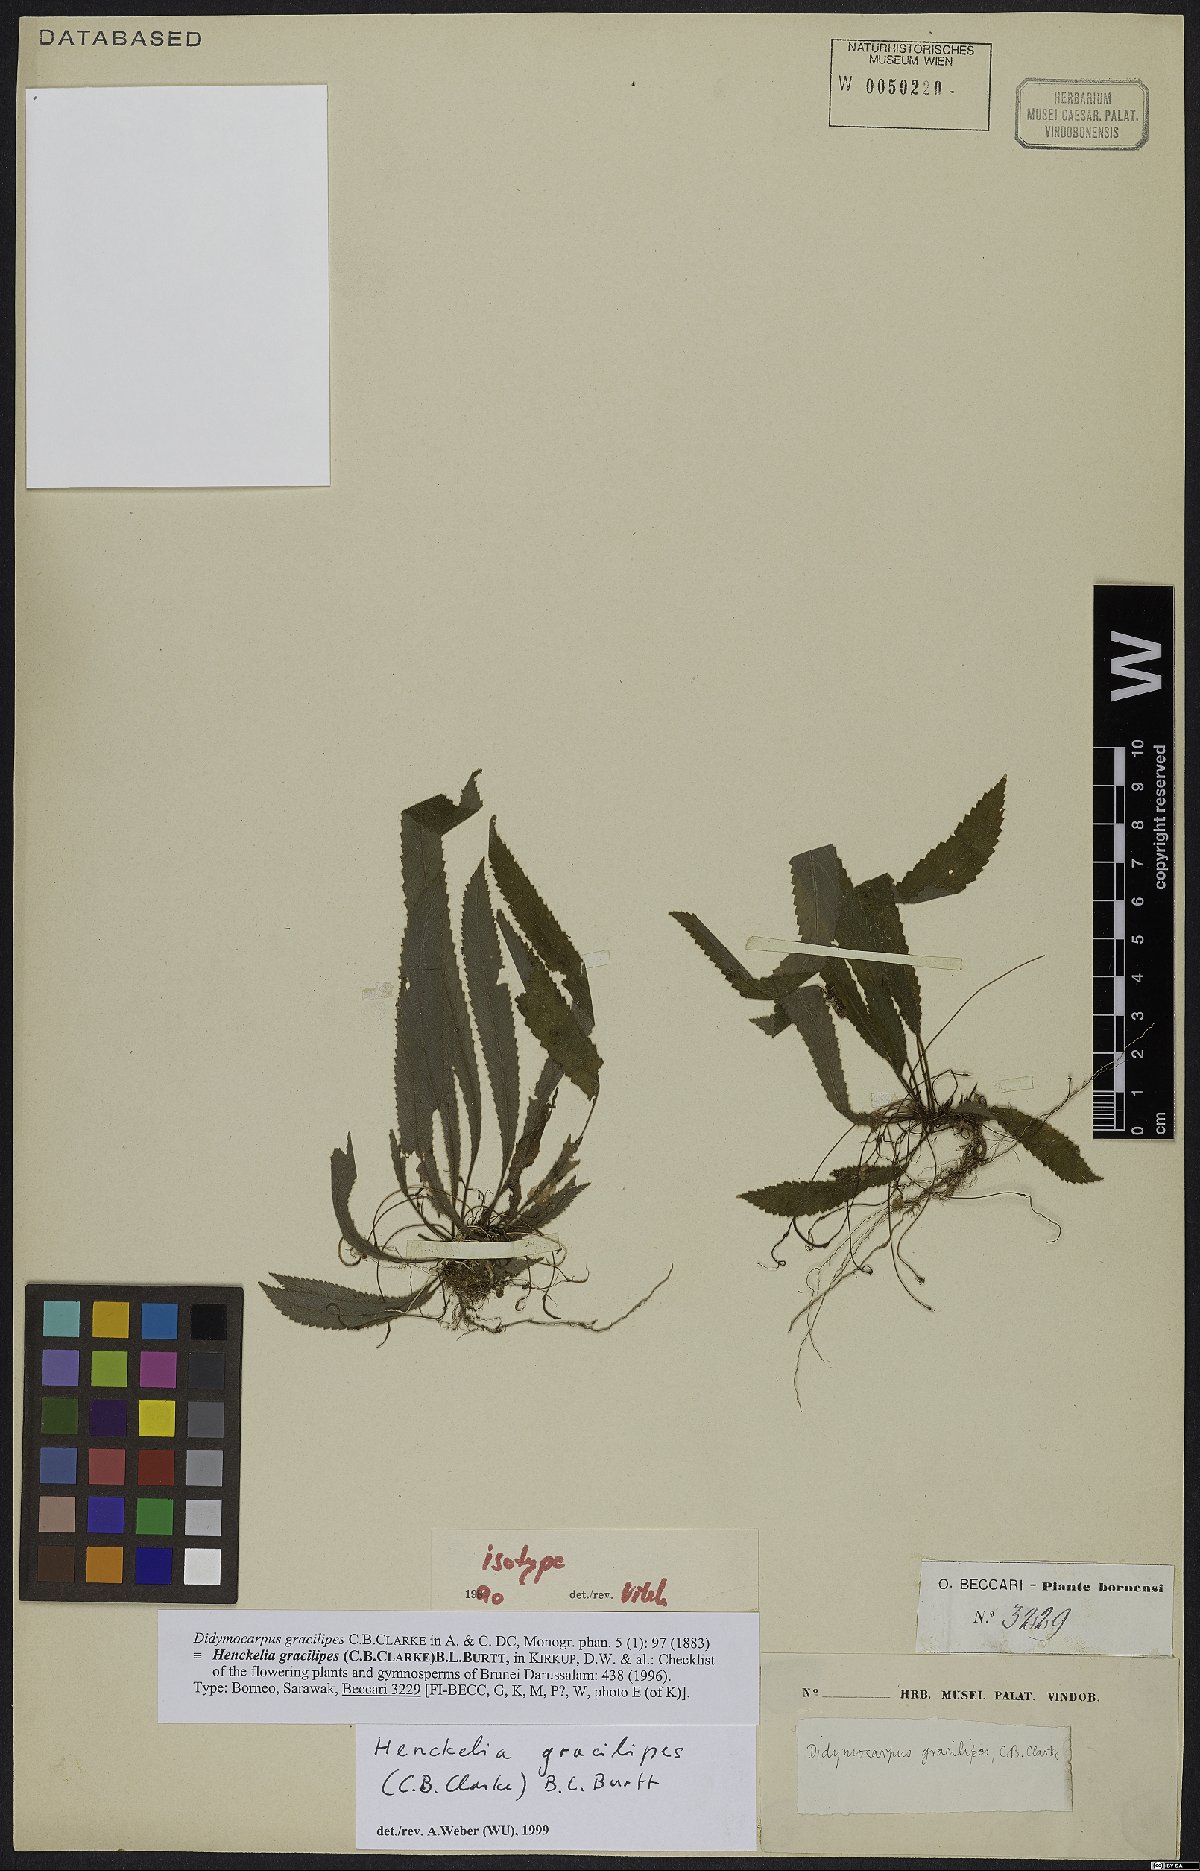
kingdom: Plantae
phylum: Tracheophyta
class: Magnoliopsida
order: Lamiales
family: Gesneriaceae
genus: Codonoboea
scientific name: Codonoboea gracilipes
